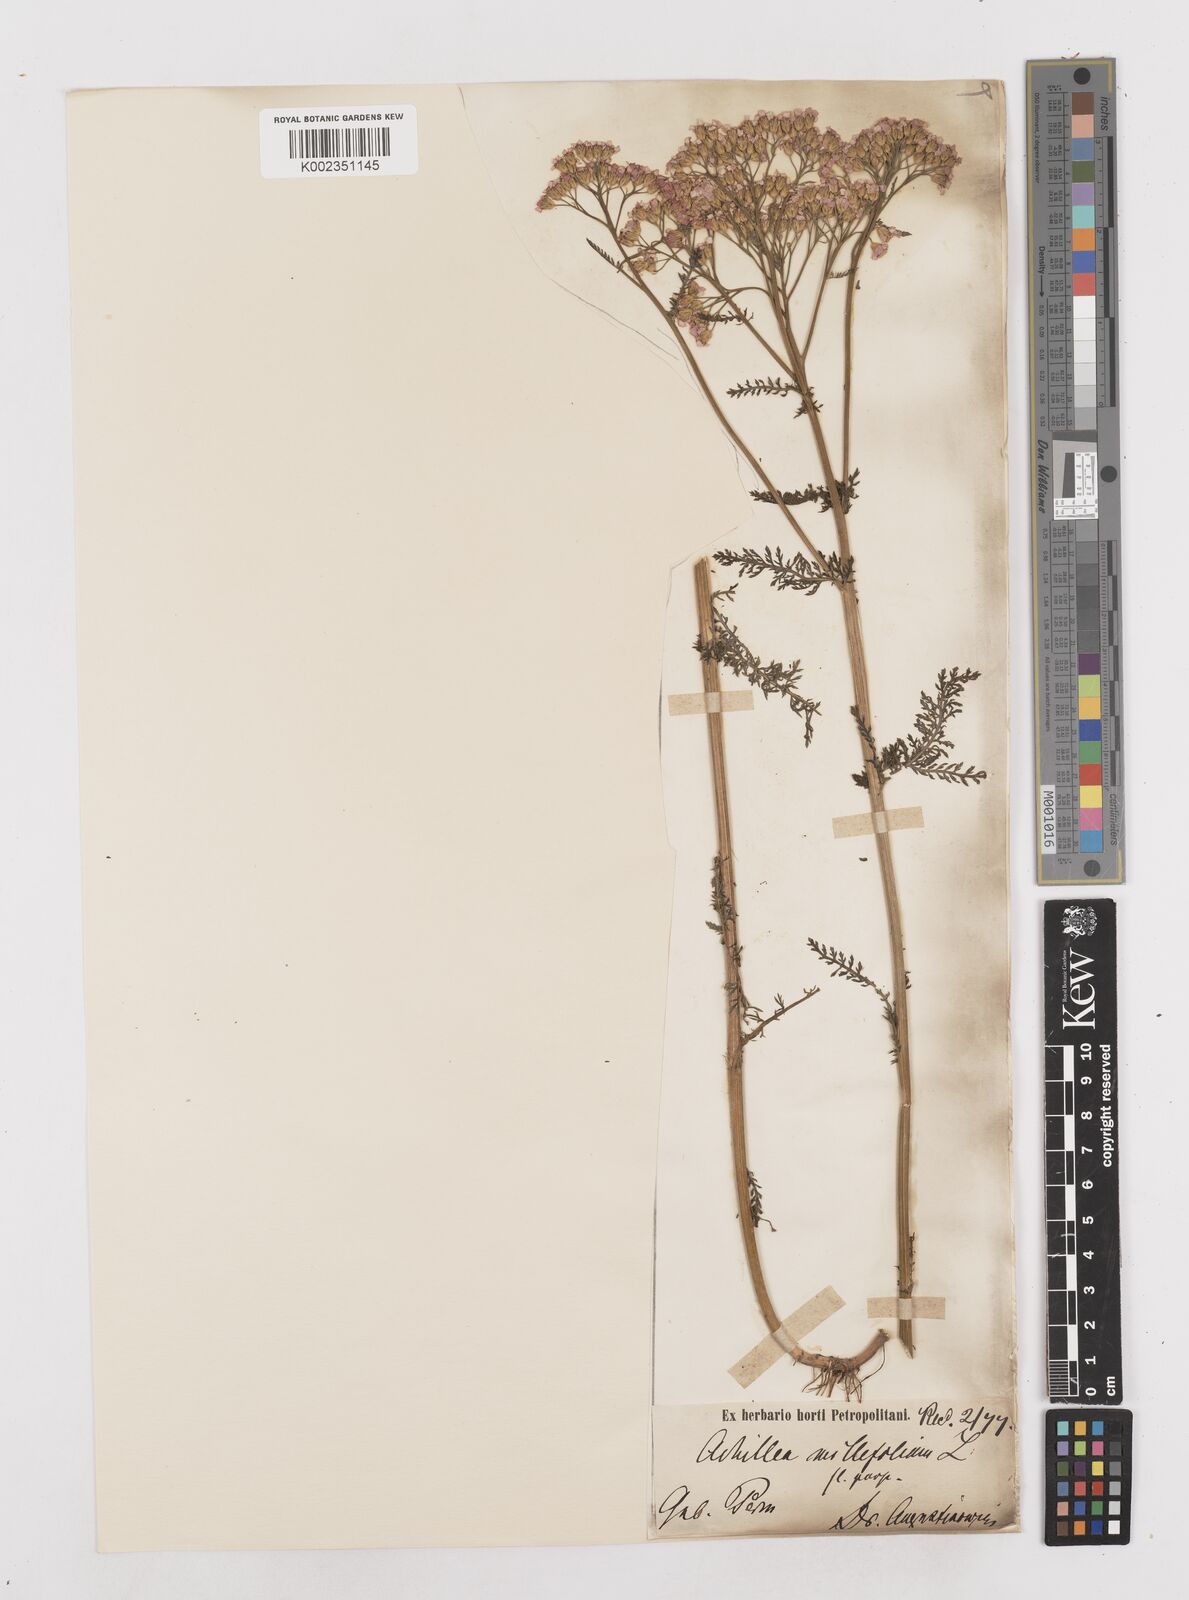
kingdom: Plantae
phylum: Tracheophyta
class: Magnoliopsida
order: Asterales
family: Asteraceae
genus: Achillea
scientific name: Achillea millefolium
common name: Yarrow
